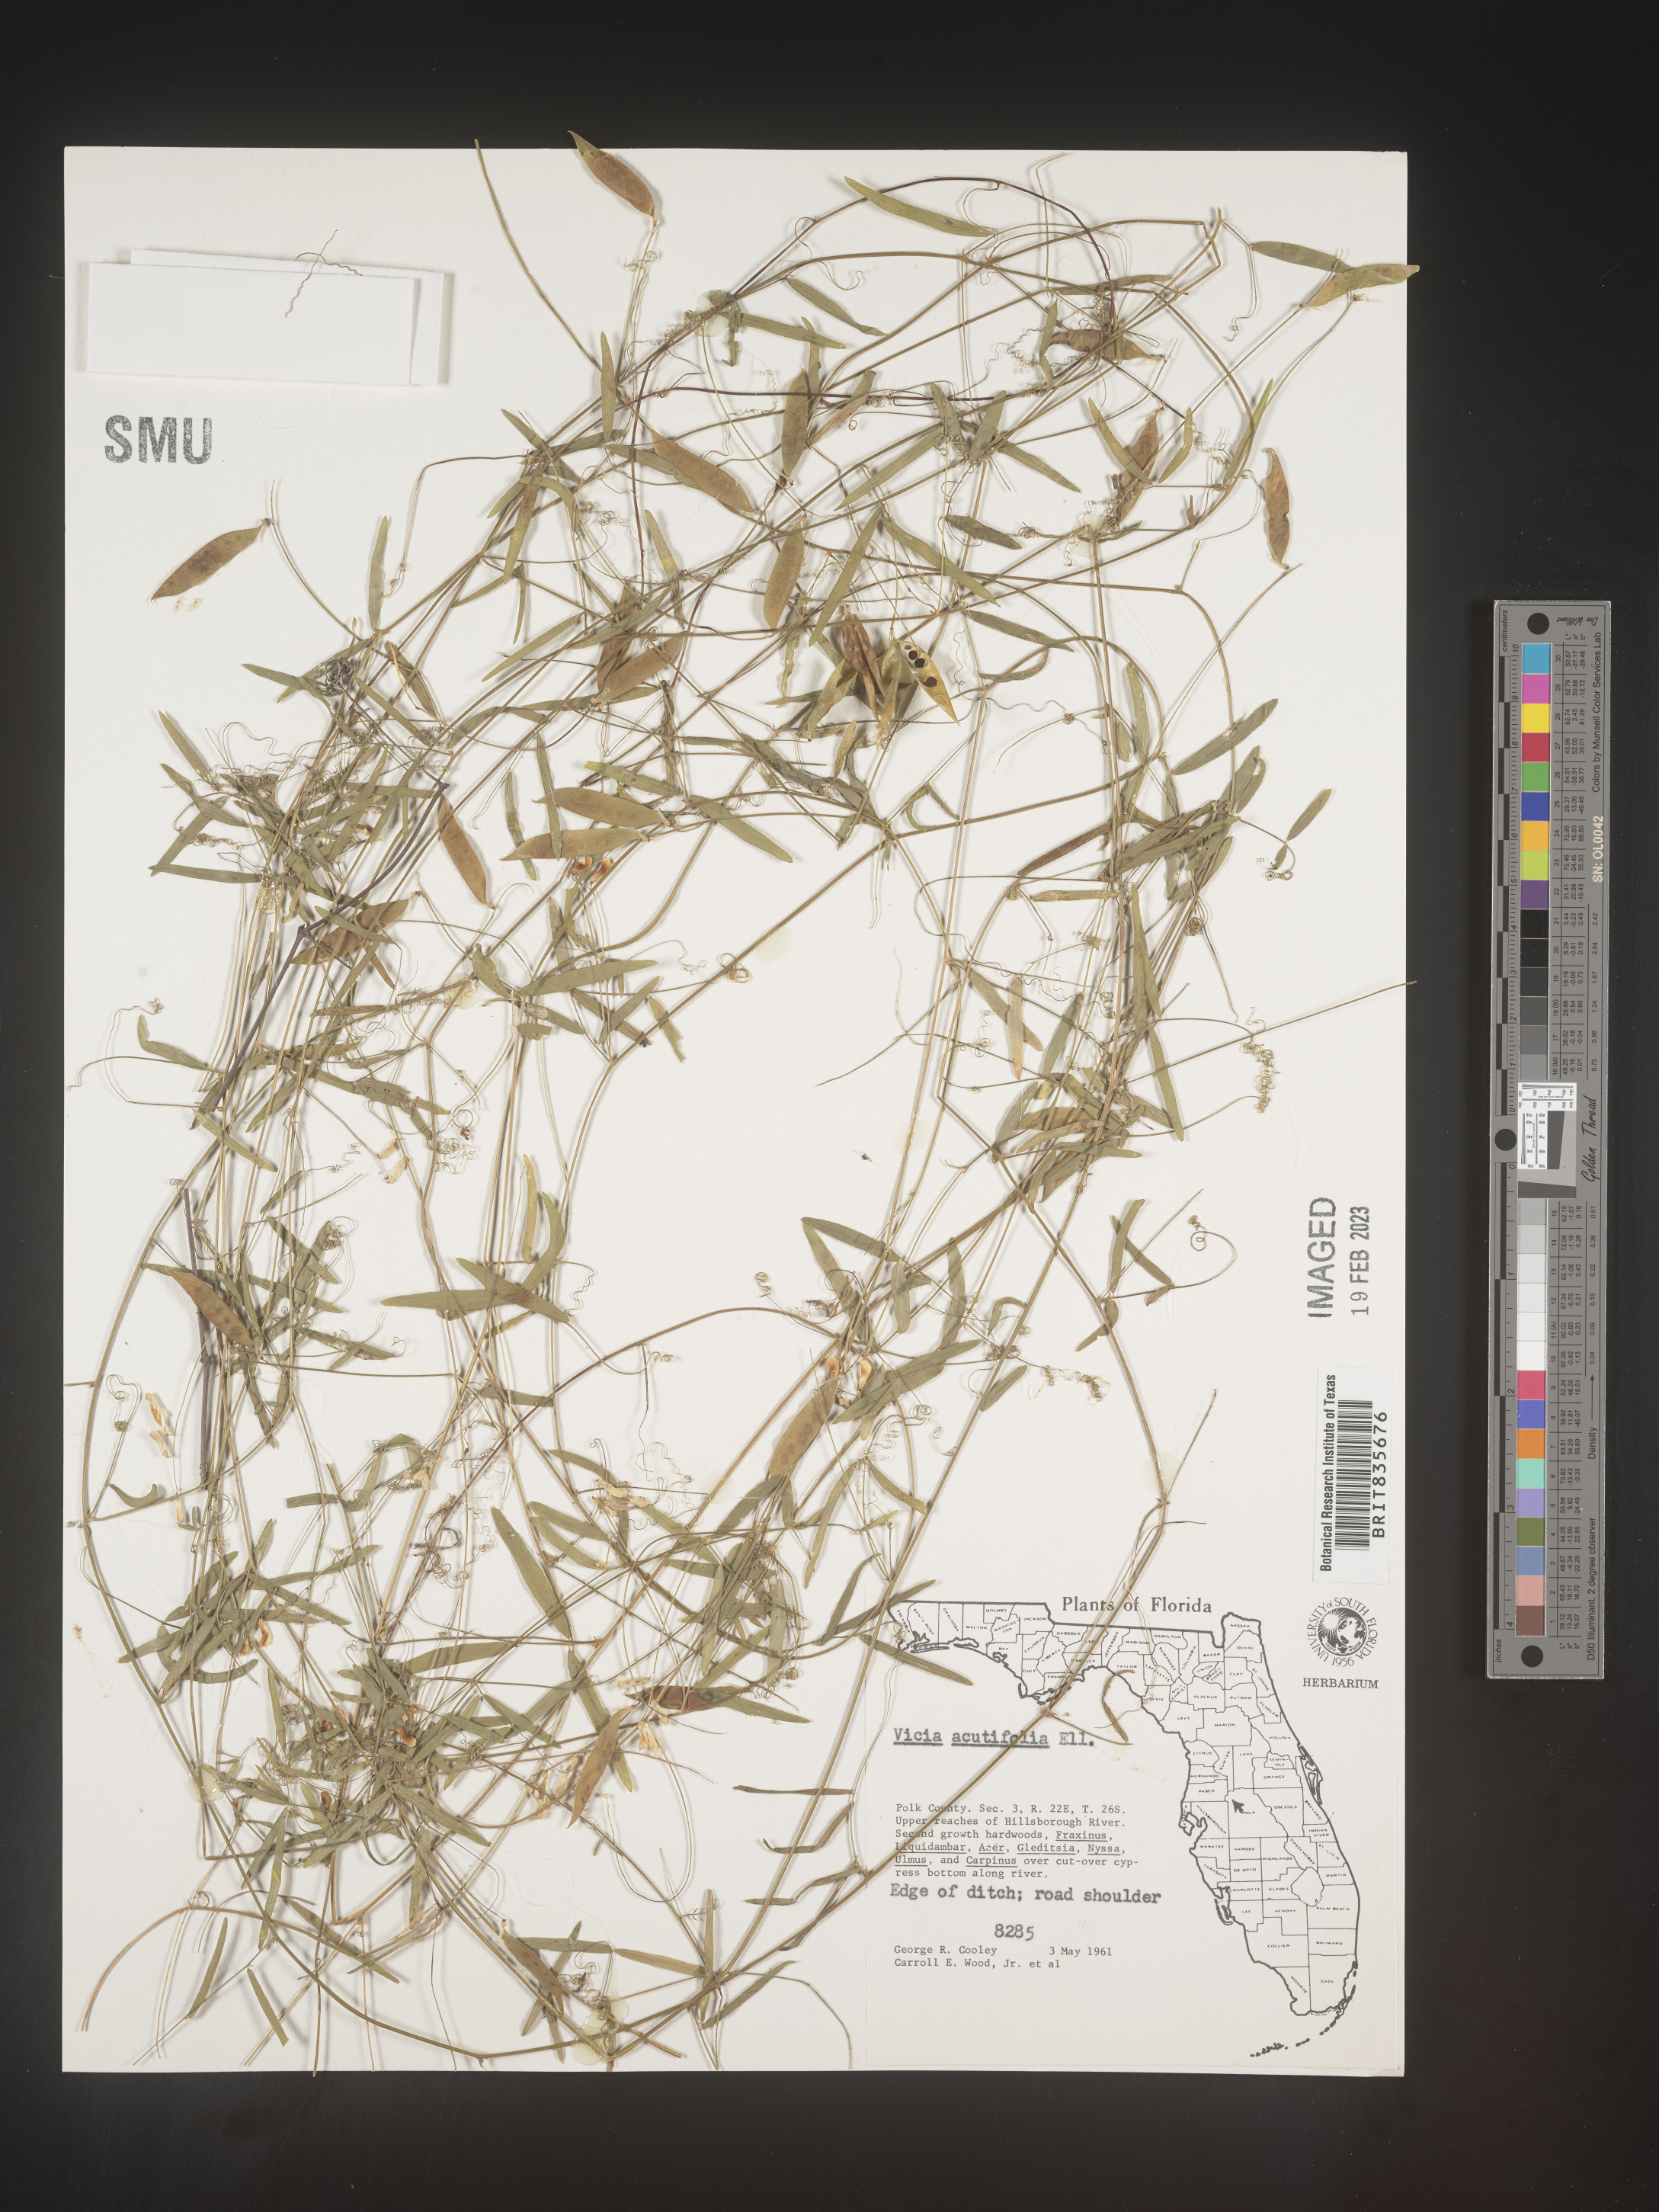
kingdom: Plantae
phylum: Tracheophyta
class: Magnoliopsida
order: Fabales
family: Fabaceae
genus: Vicia
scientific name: Vicia acutifolia
